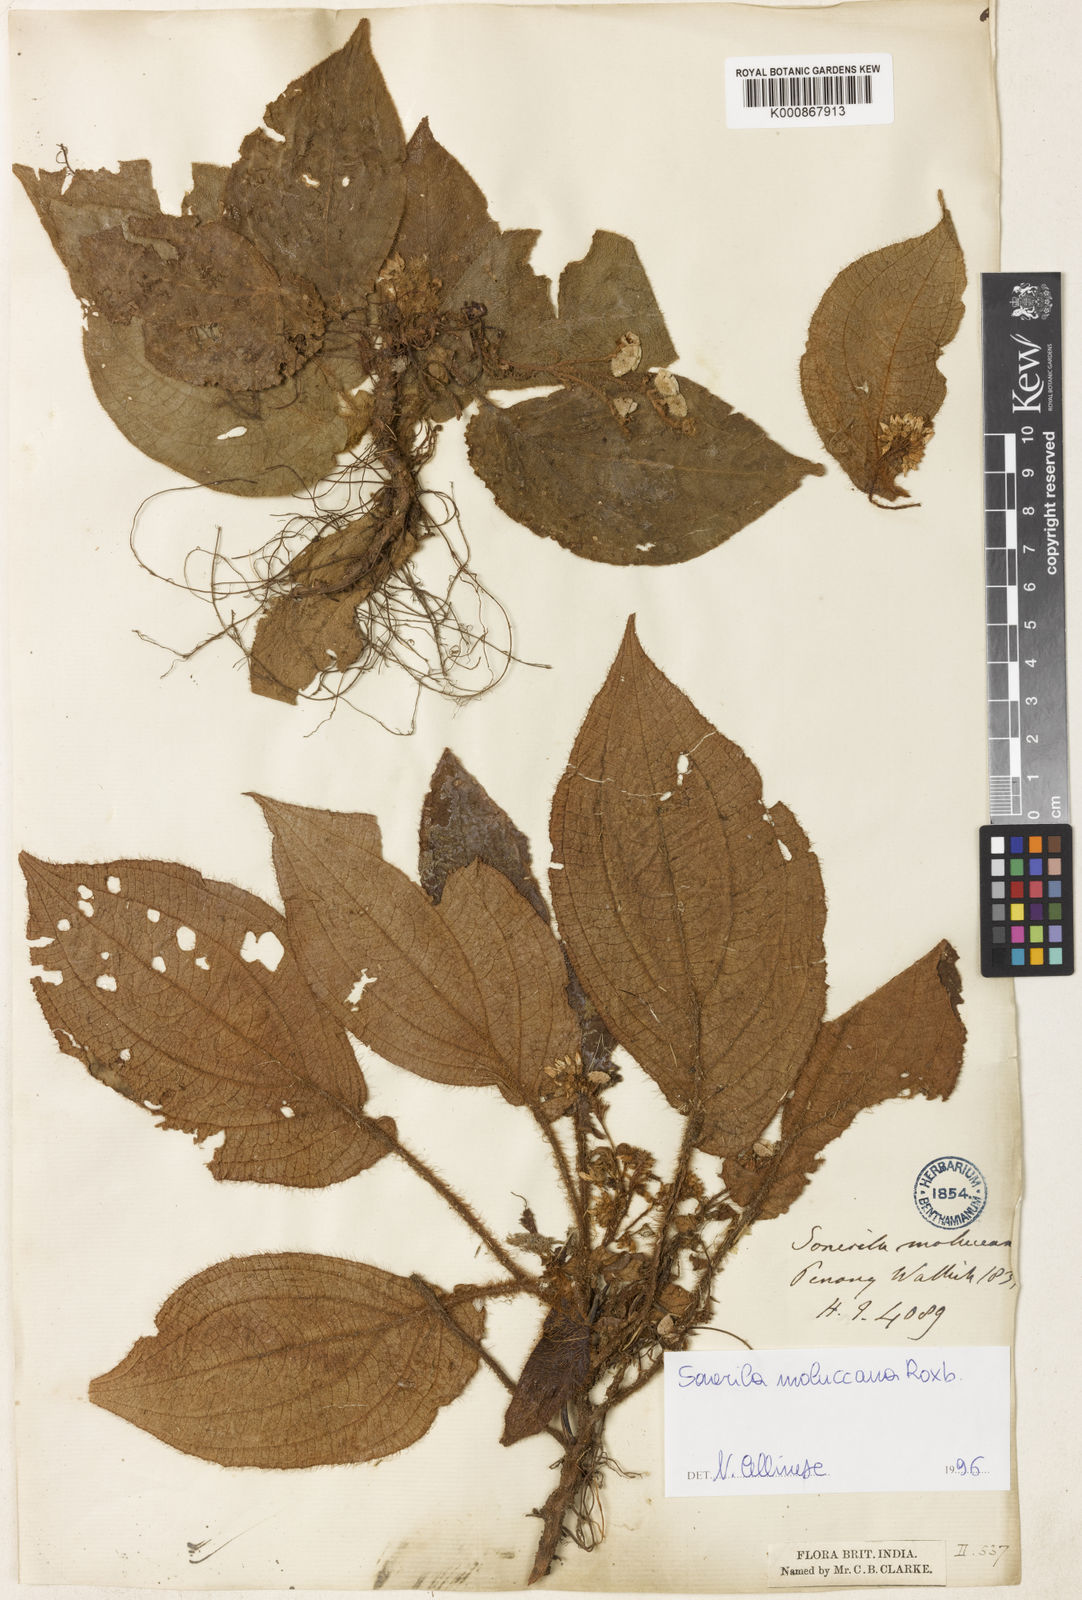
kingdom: Plantae
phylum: Tracheophyta
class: Magnoliopsida
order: Myrtales
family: Melastomataceae
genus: Sonerila
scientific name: Sonerila moluccana
